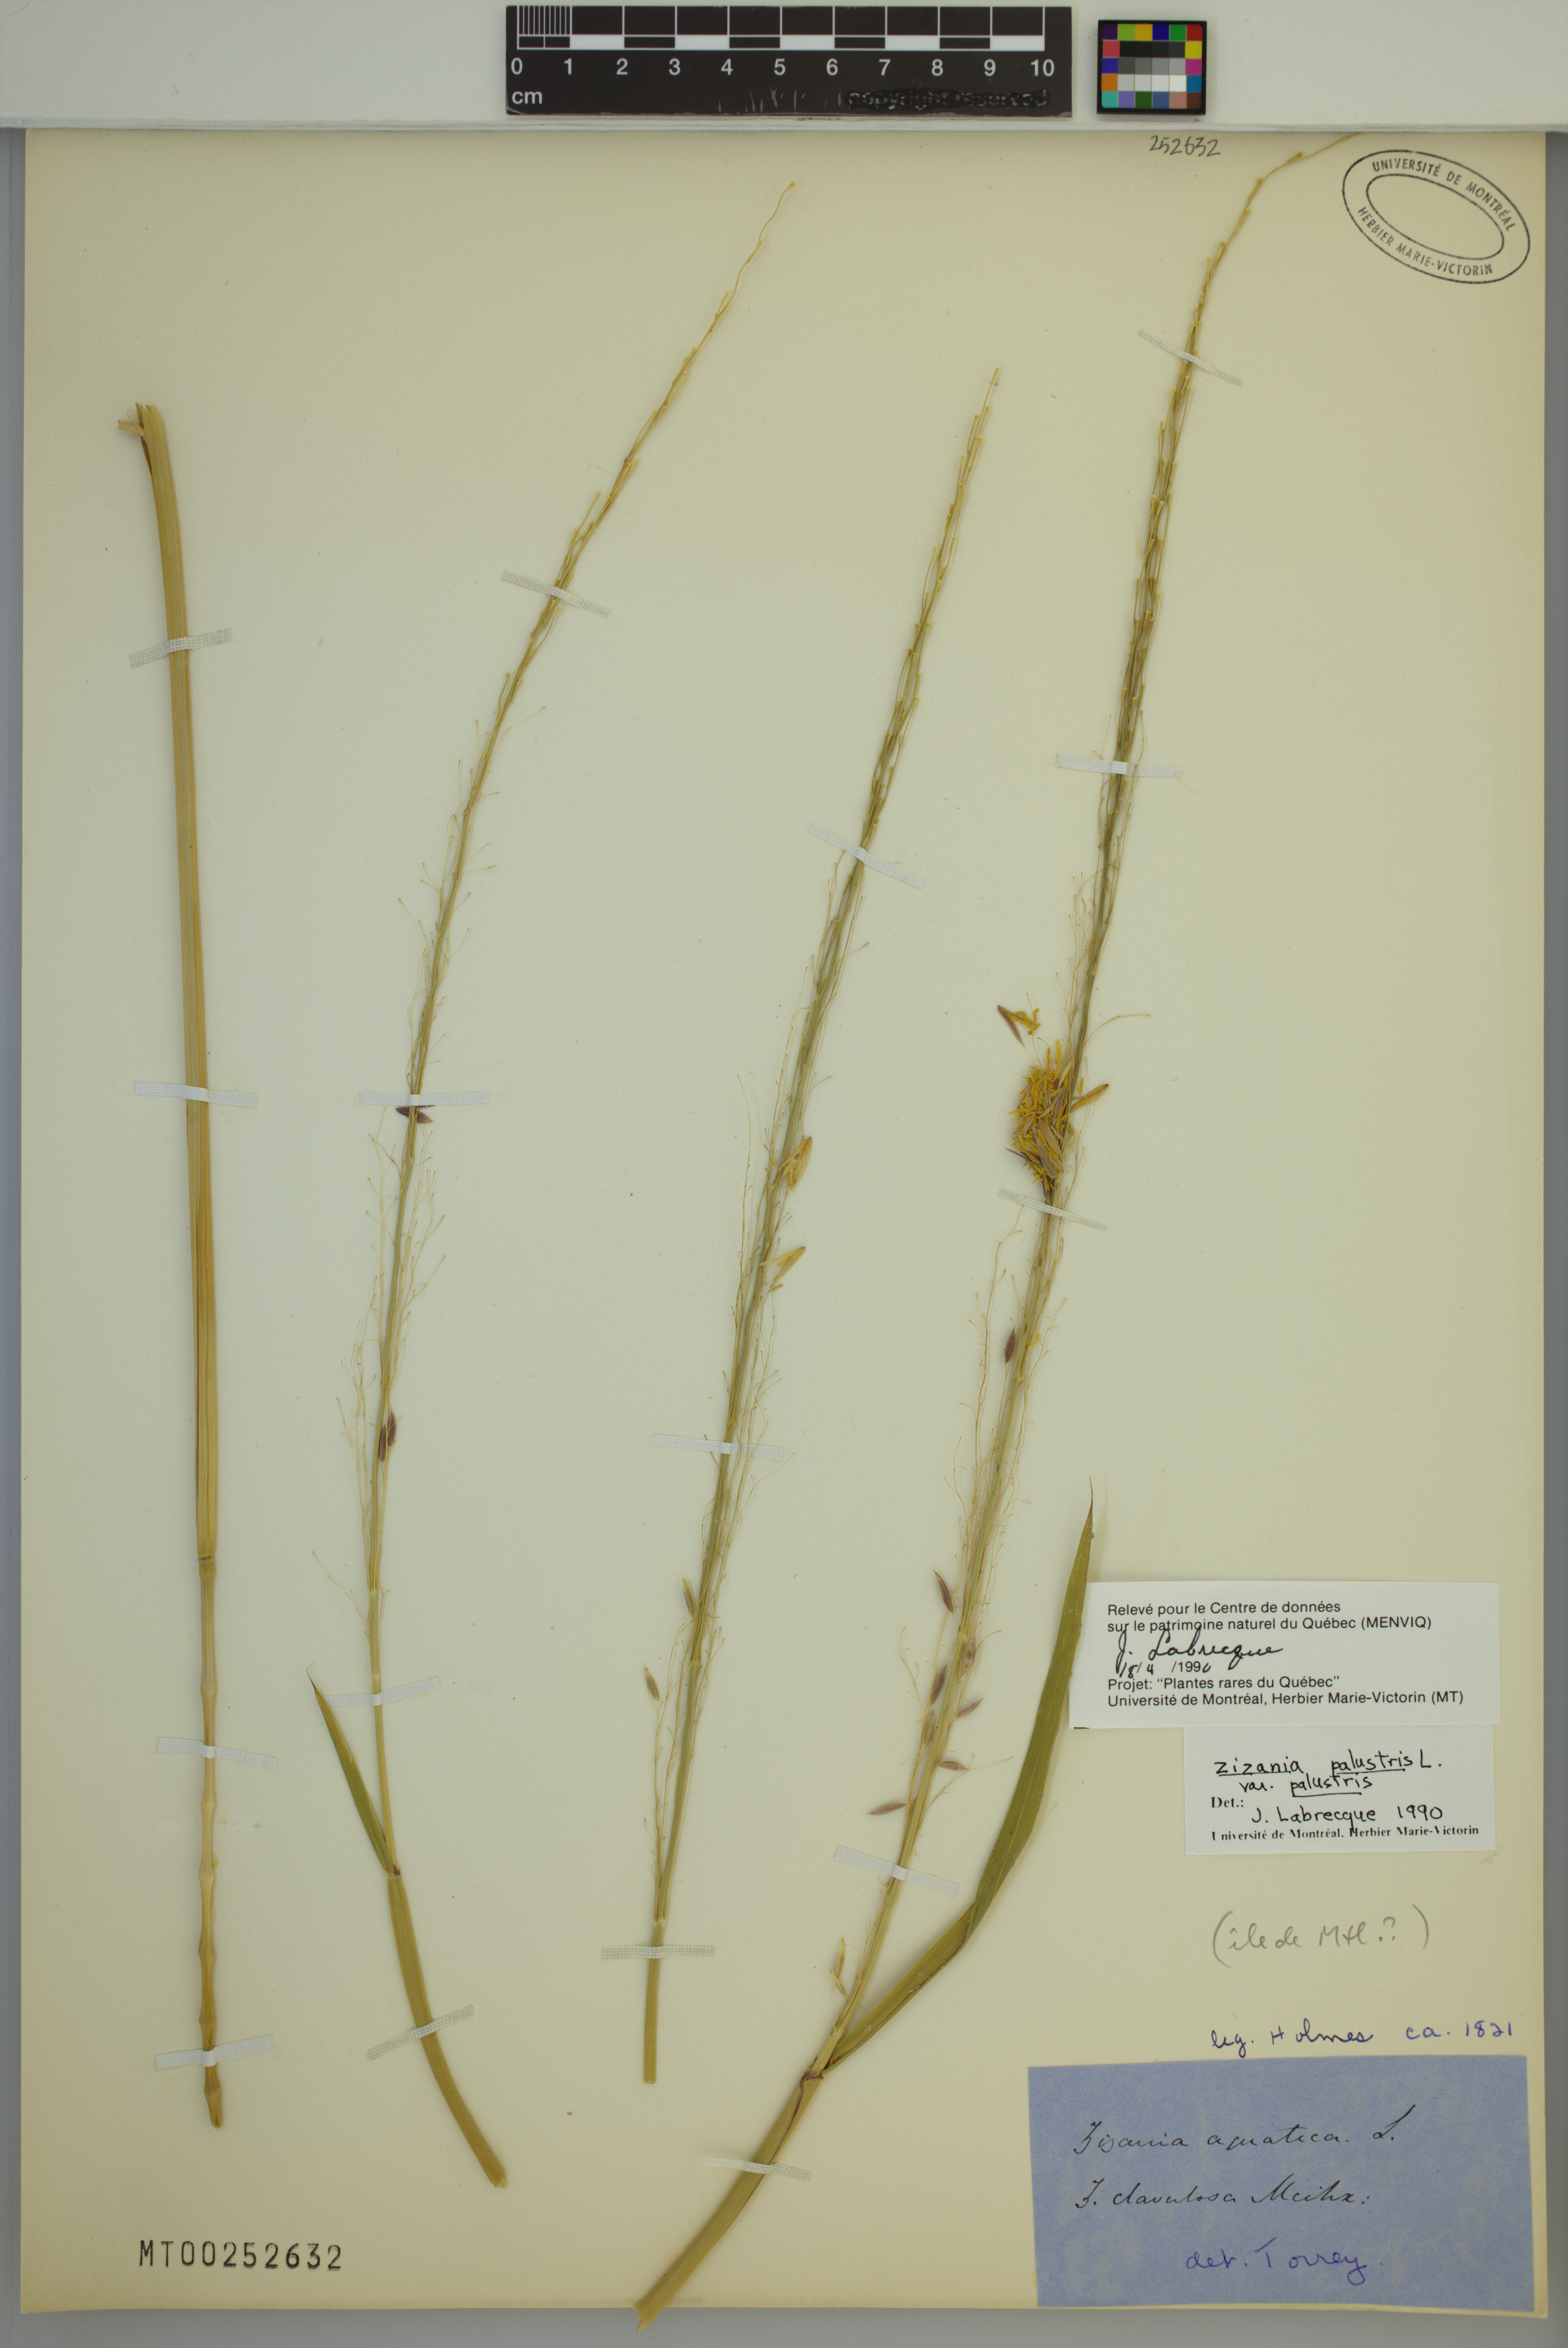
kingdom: Plantae
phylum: Tracheophyta
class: Liliopsida
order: Poales
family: Poaceae
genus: Zizania
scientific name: Zizania palustris
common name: Northern wild rice
